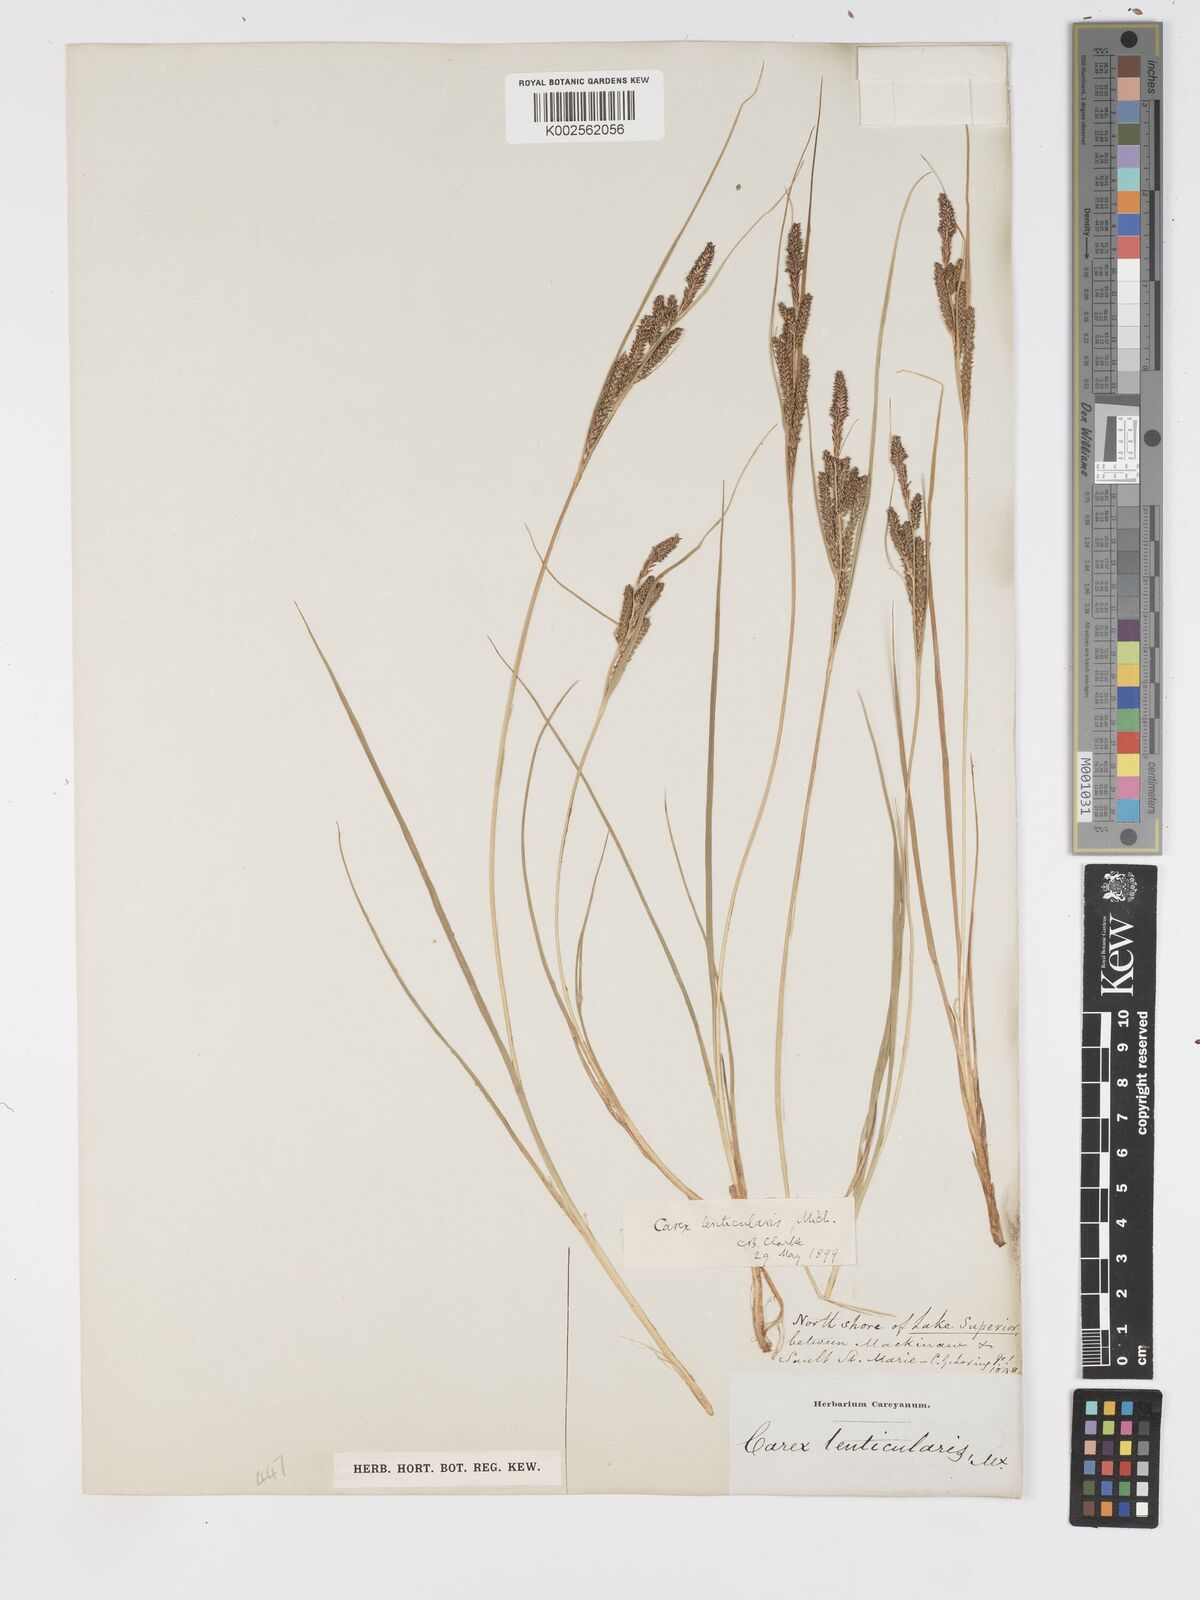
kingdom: Plantae
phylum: Tracheophyta
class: Liliopsida
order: Poales
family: Cyperaceae
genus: Carex
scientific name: Carex lenticularis
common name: Lakeshore sedge
